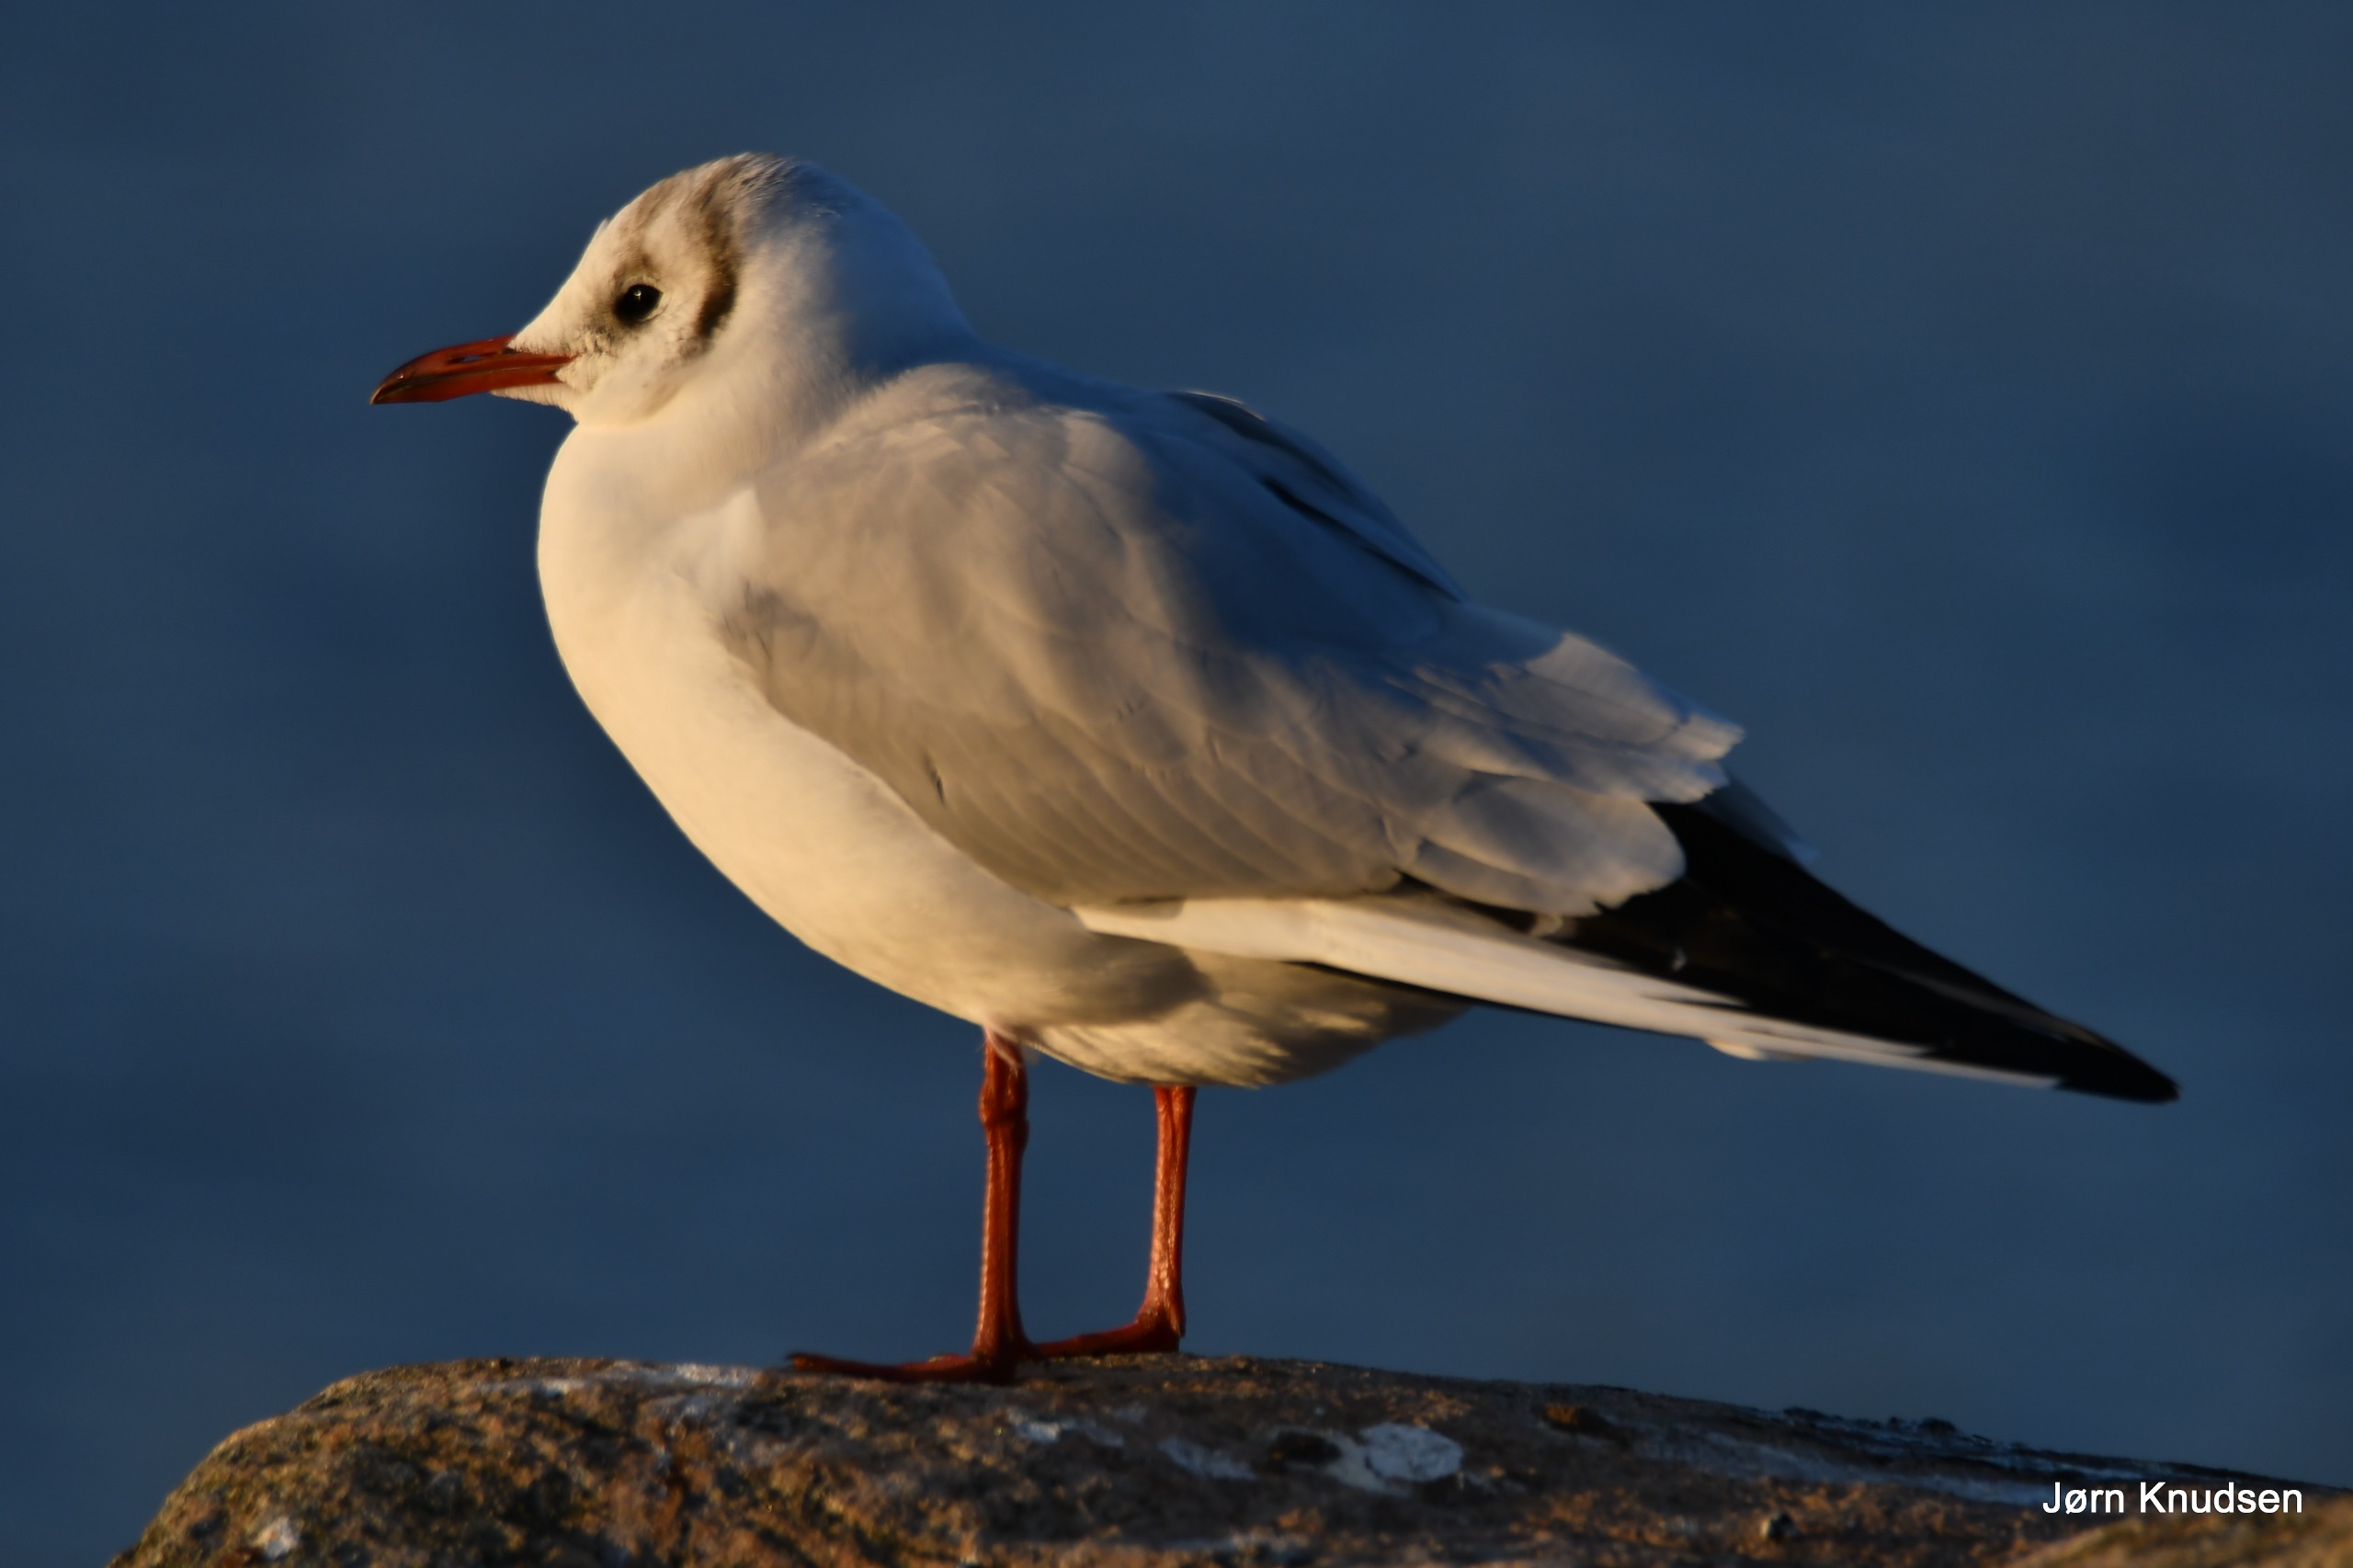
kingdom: Animalia
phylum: Chordata
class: Aves
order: Charadriiformes
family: Laridae
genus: Chroicocephalus
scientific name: Chroicocephalus ridibundus
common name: Hættemåge
